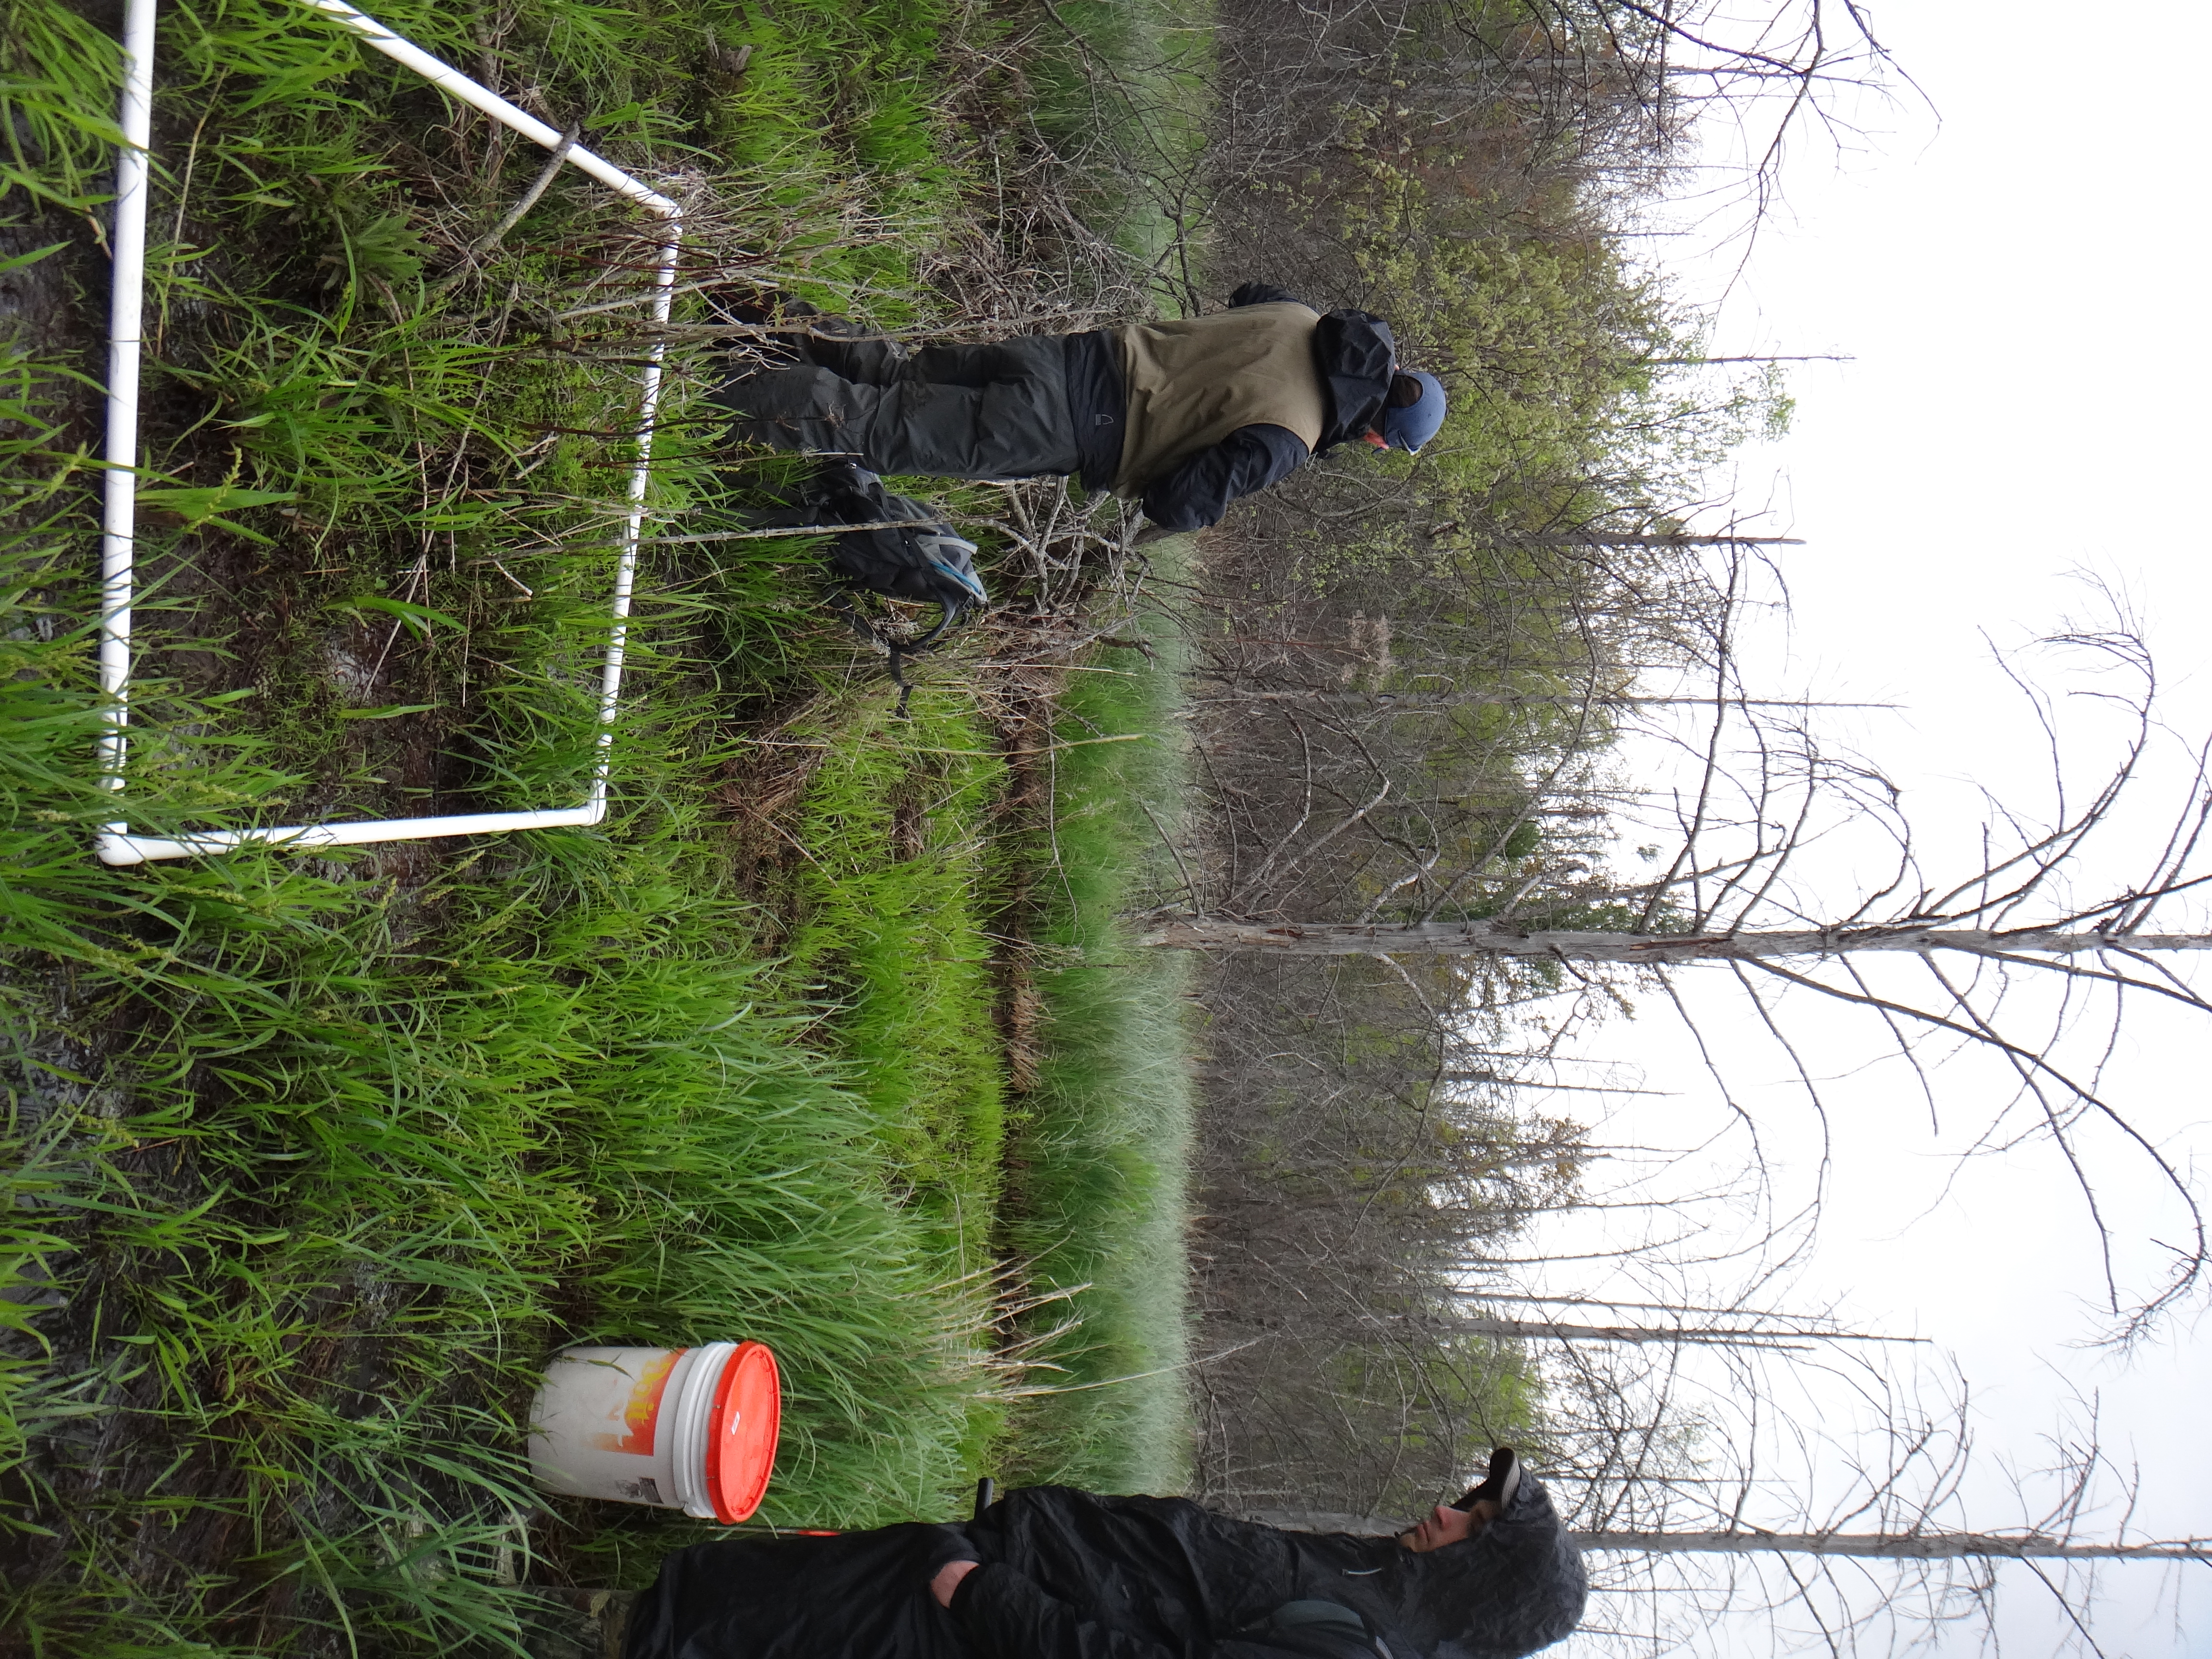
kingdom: Plantae
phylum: Tracheophyta
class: Magnoliopsida
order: Ericales
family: Balsaminaceae
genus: Impatiens
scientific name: Impatiens capensis
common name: Orange balsam
